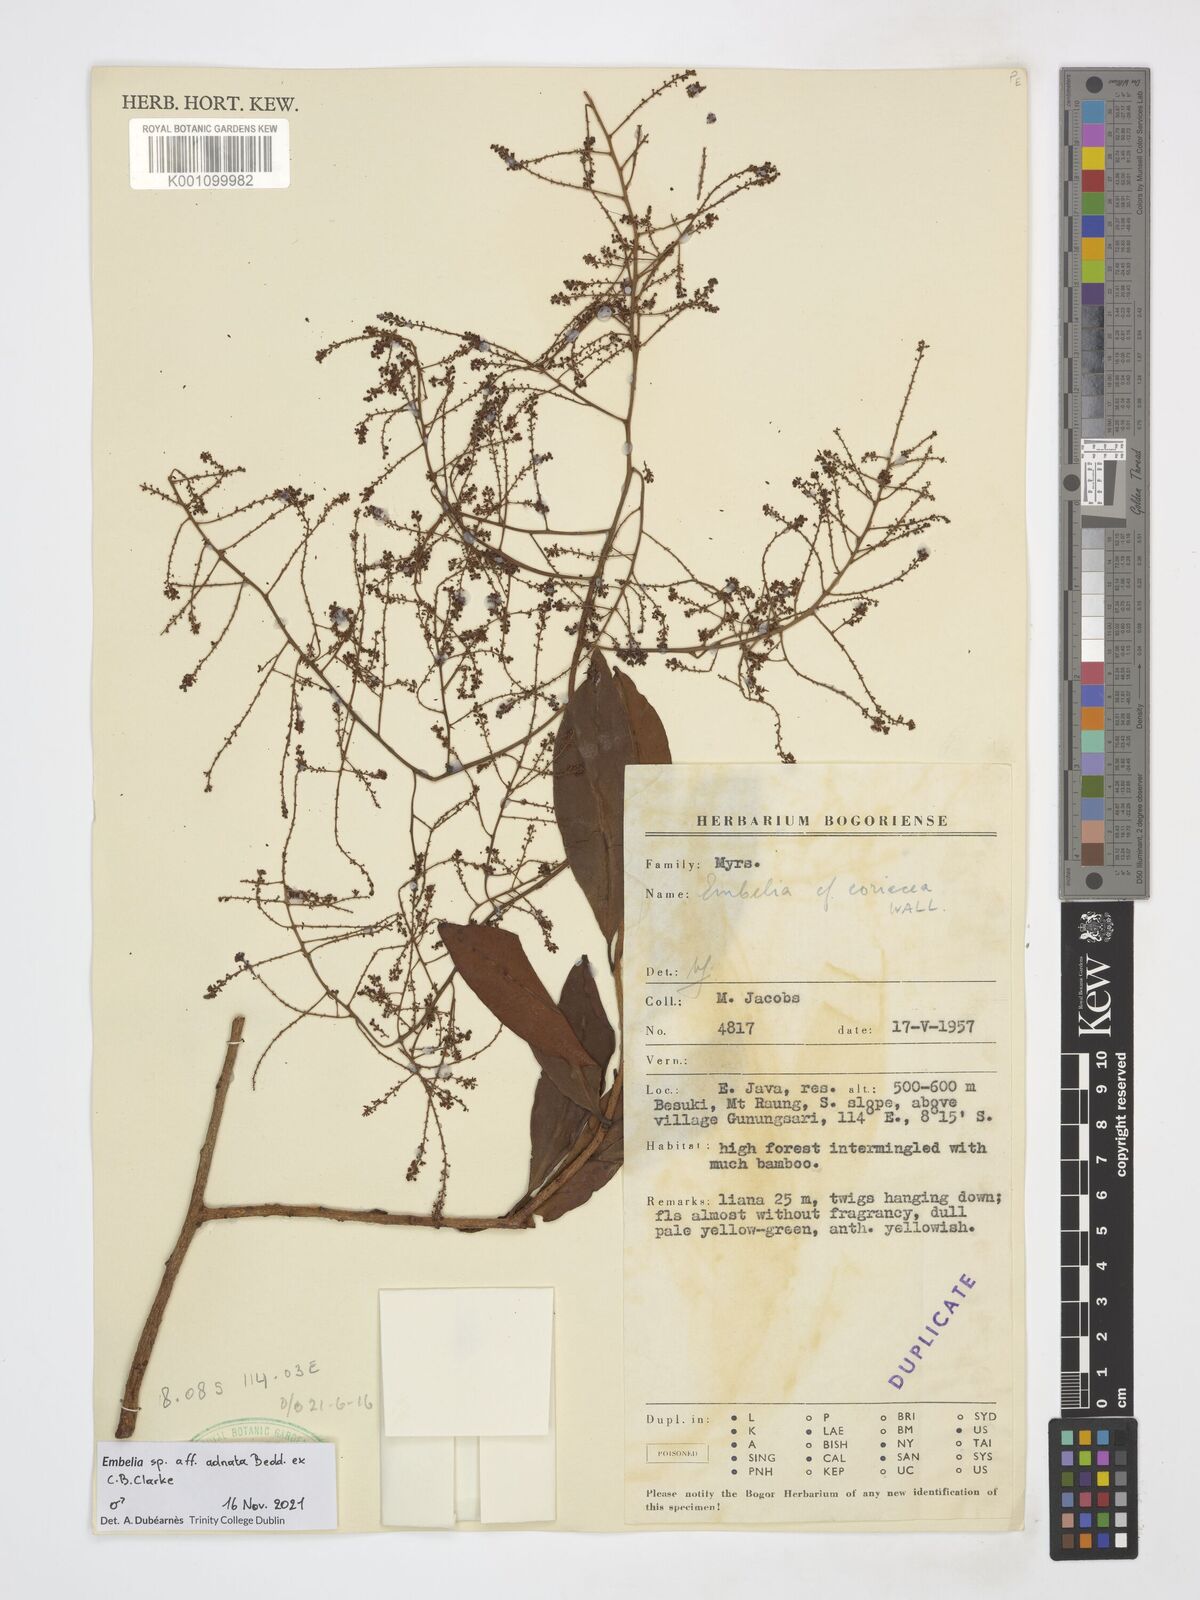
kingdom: Plantae
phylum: Tracheophyta
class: Magnoliopsida
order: Ericales
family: Primulaceae
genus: Embelia
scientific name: Embelia adnata
